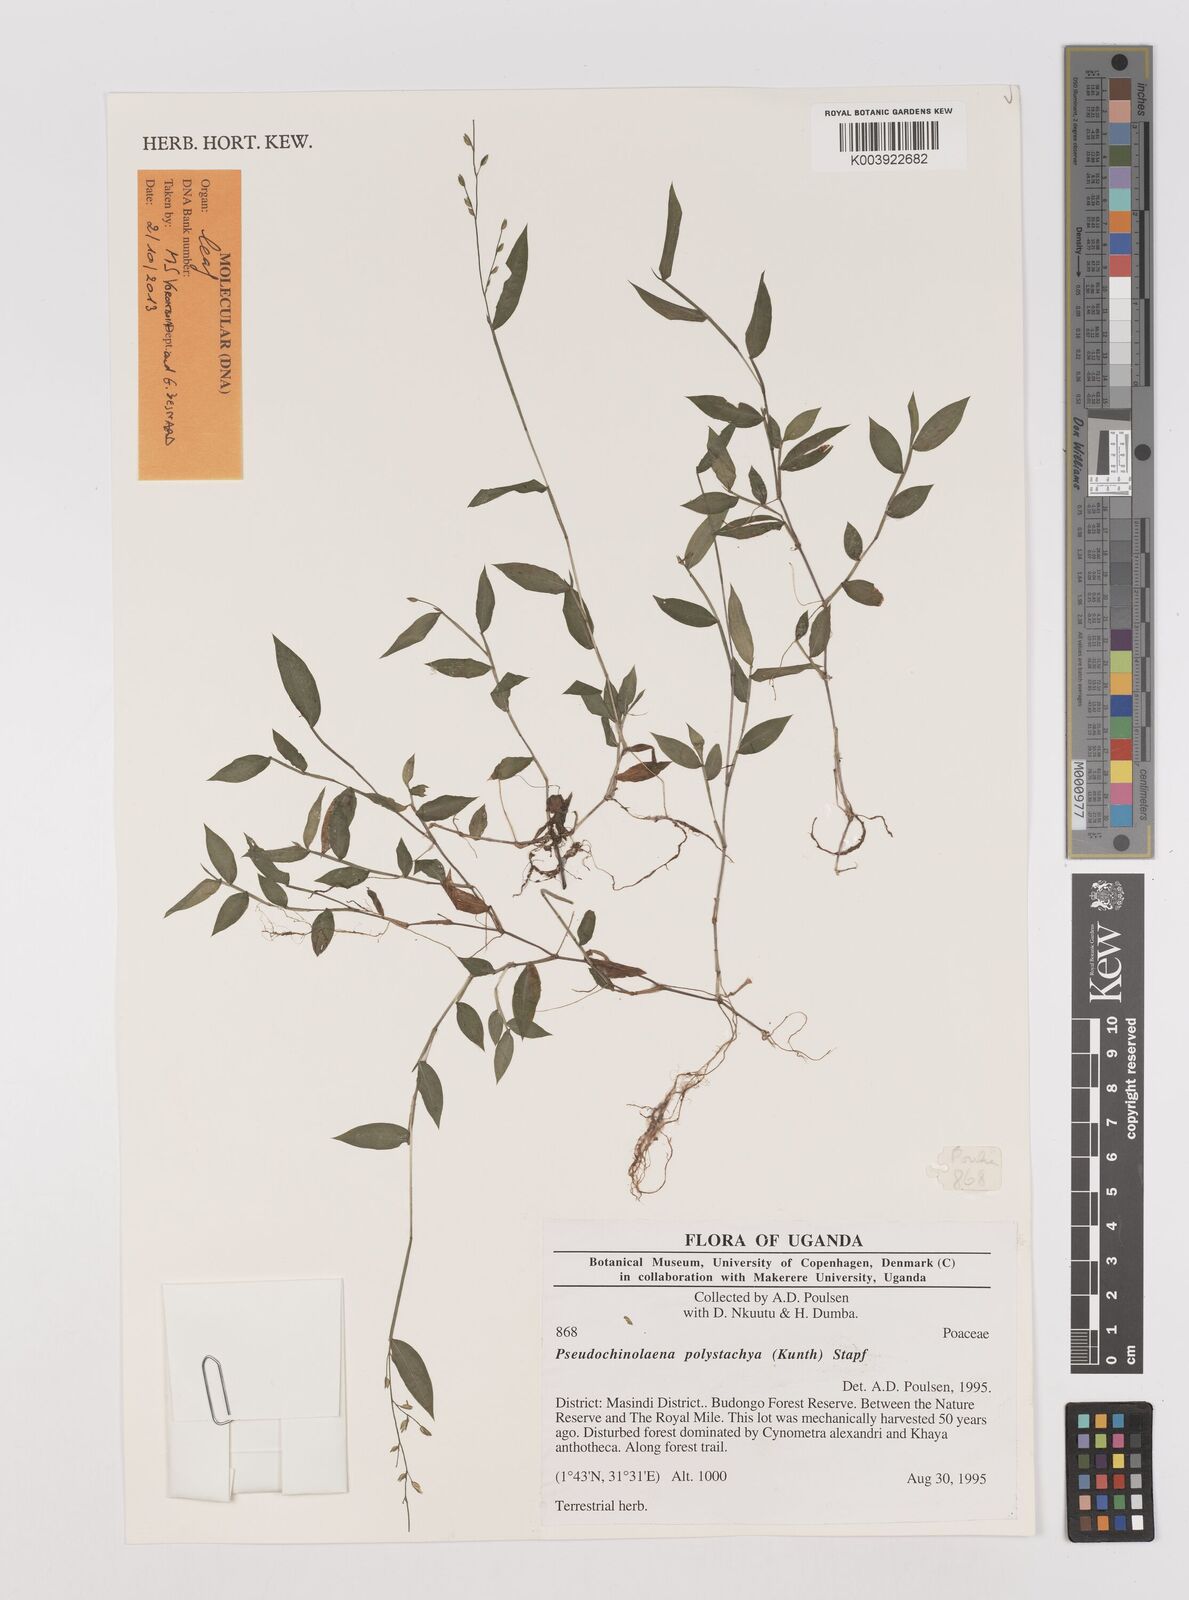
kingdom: Plantae
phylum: Tracheophyta
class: Liliopsida
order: Poales
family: Poaceae
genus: Pseudechinolaena
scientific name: Pseudechinolaena polystachya
